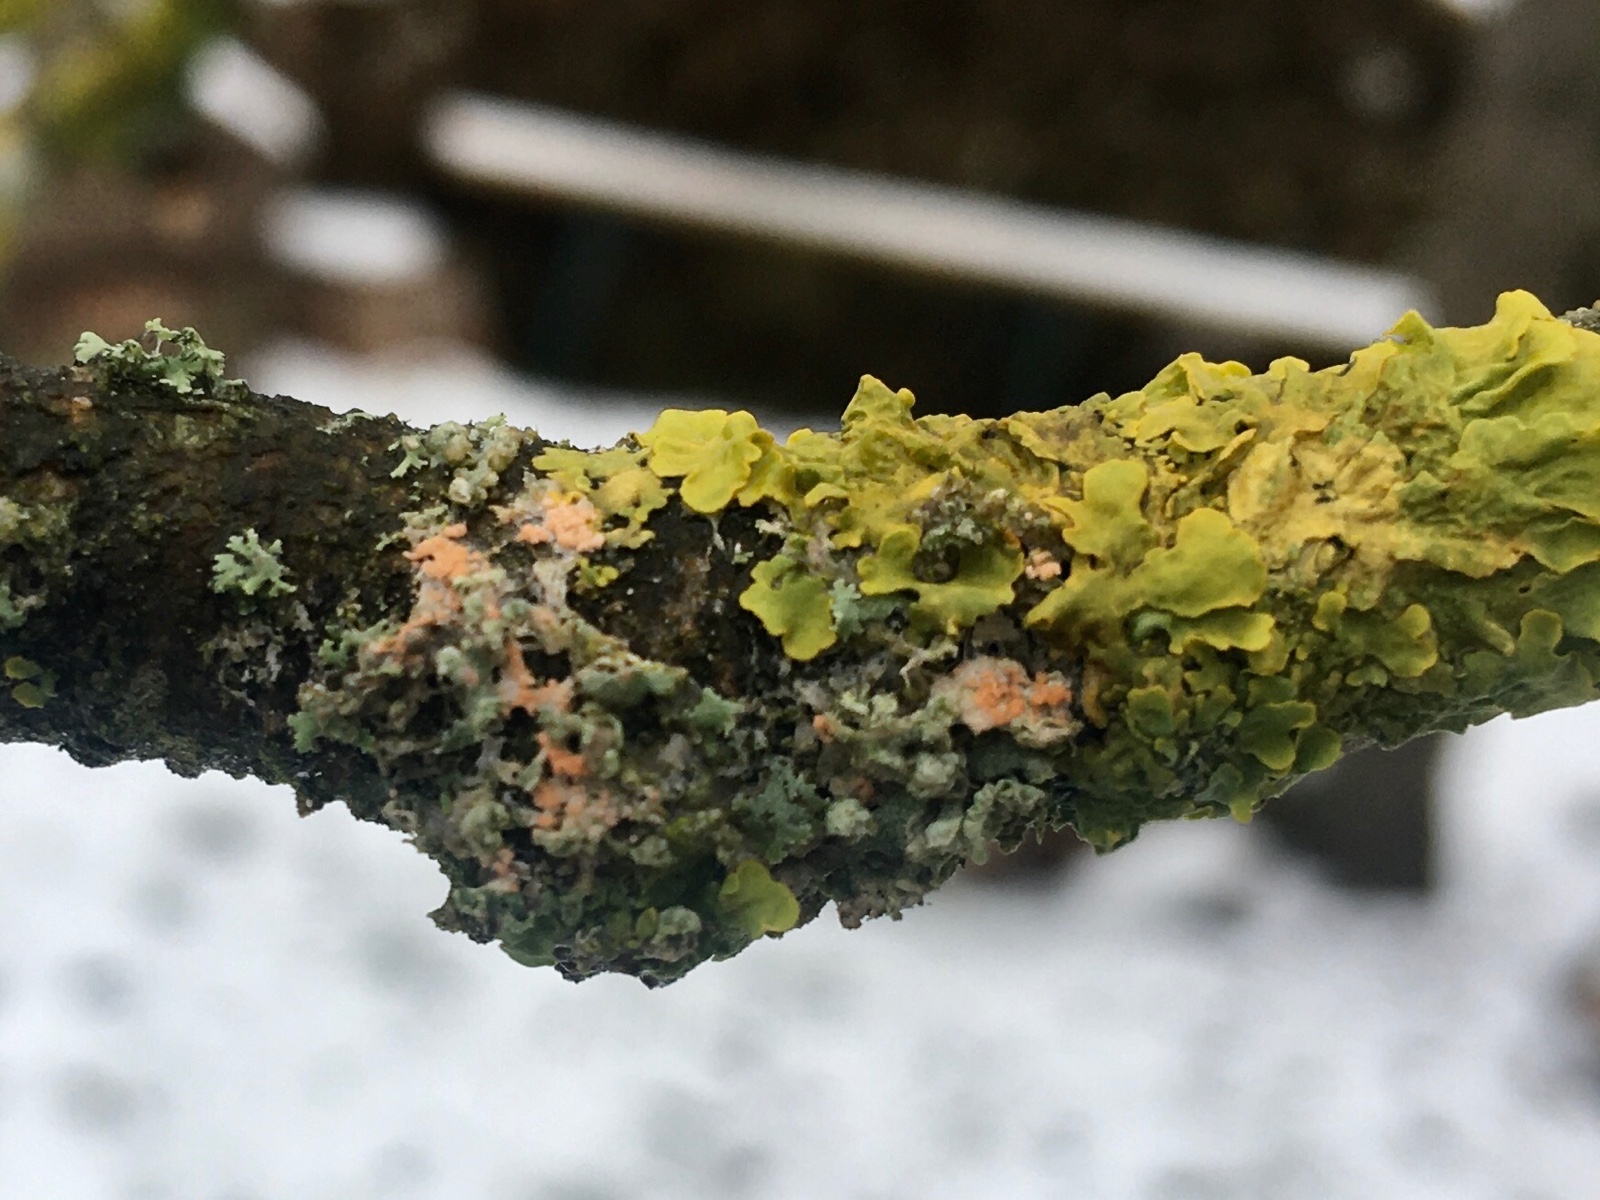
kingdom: Fungi
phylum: Basidiomycota
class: Agaricomycetes
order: Corticiales
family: Corticiaceae
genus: Erythricium
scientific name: Erythricium aurantiacum
